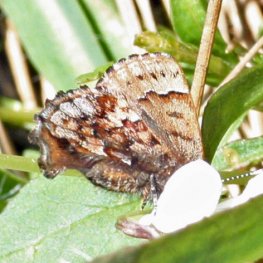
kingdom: Animalia
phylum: Arthropoda
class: Insecta
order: Lepidoptera
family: Lycaenidae
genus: Incisalia
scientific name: Incisalia lanoraieensis
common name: Bog Elfin
